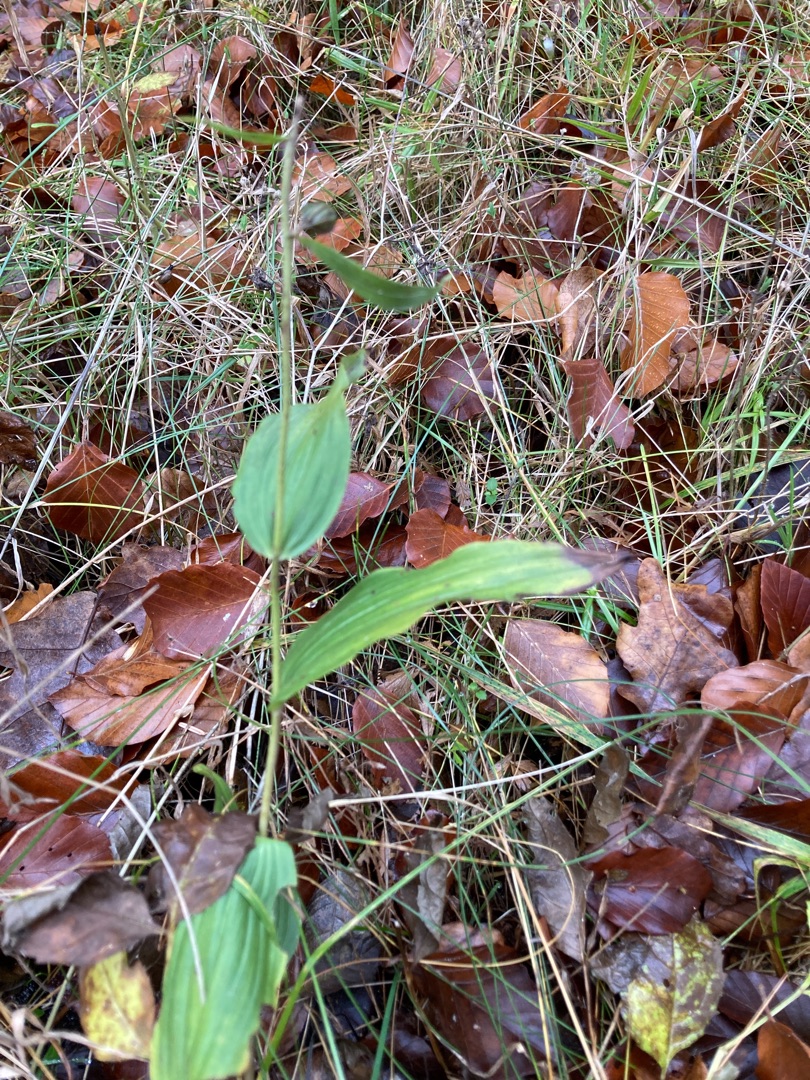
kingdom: Plantae
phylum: Tracheophyta
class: Liliopsida
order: Asparagales
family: Orchidaceae
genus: Epipactis
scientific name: Epipactis helleborine
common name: Skov-hullæbe
